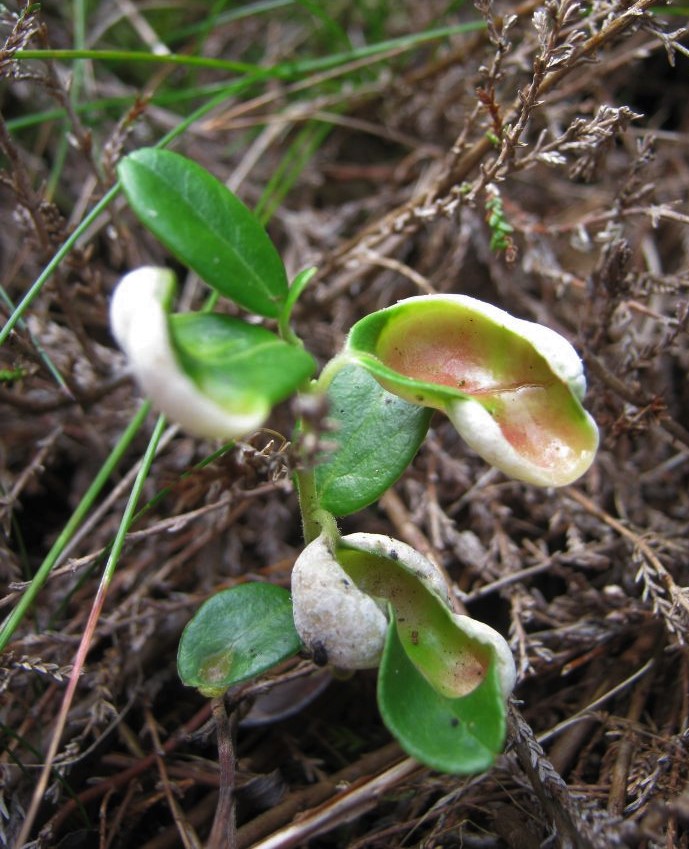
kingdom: Fungi
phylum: Basidiomycota
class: Exobasidiomycetes
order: Exobasidiales
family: Exobasidiaceae
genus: Exobasidium
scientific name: Exobasidium vaccinii
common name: tyttebærblad-bøllesvamp
